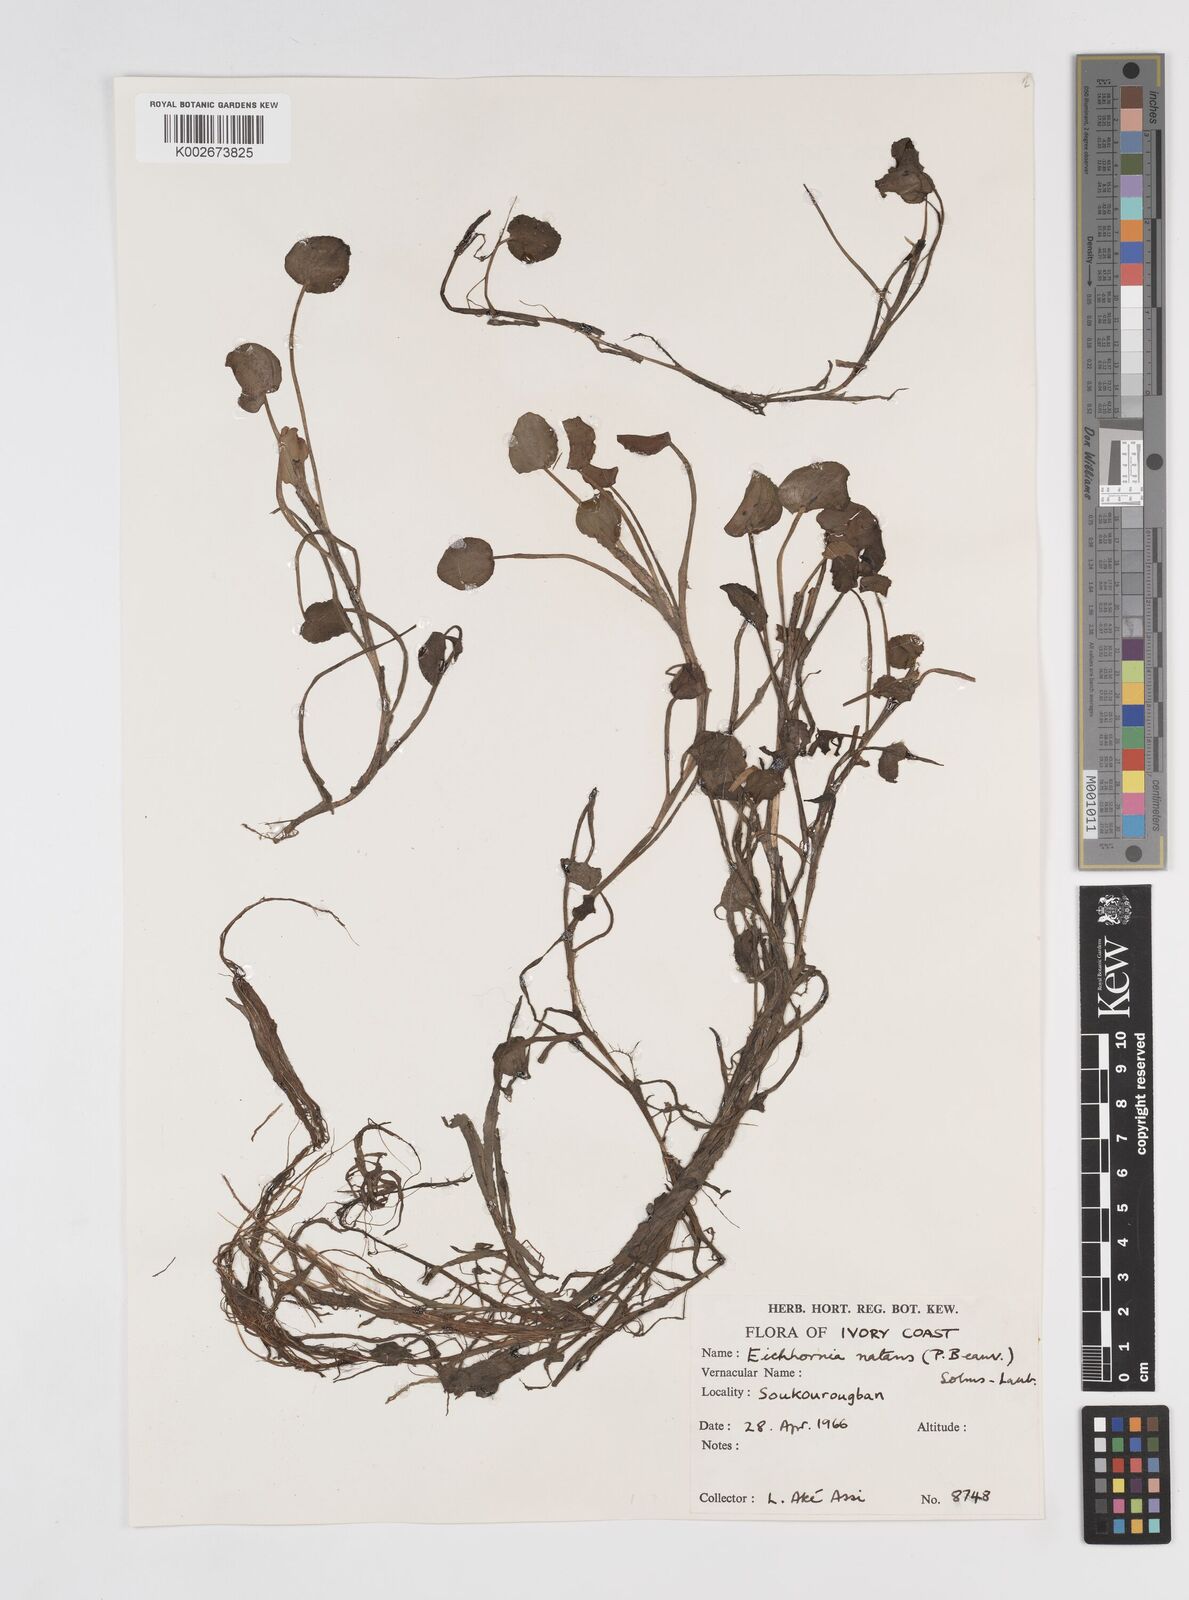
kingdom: Plantae
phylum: Tracheophyta
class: Liliopsida
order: Commelinales
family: Pontederiaceae
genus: Pontederia
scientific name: Pontederia natans
